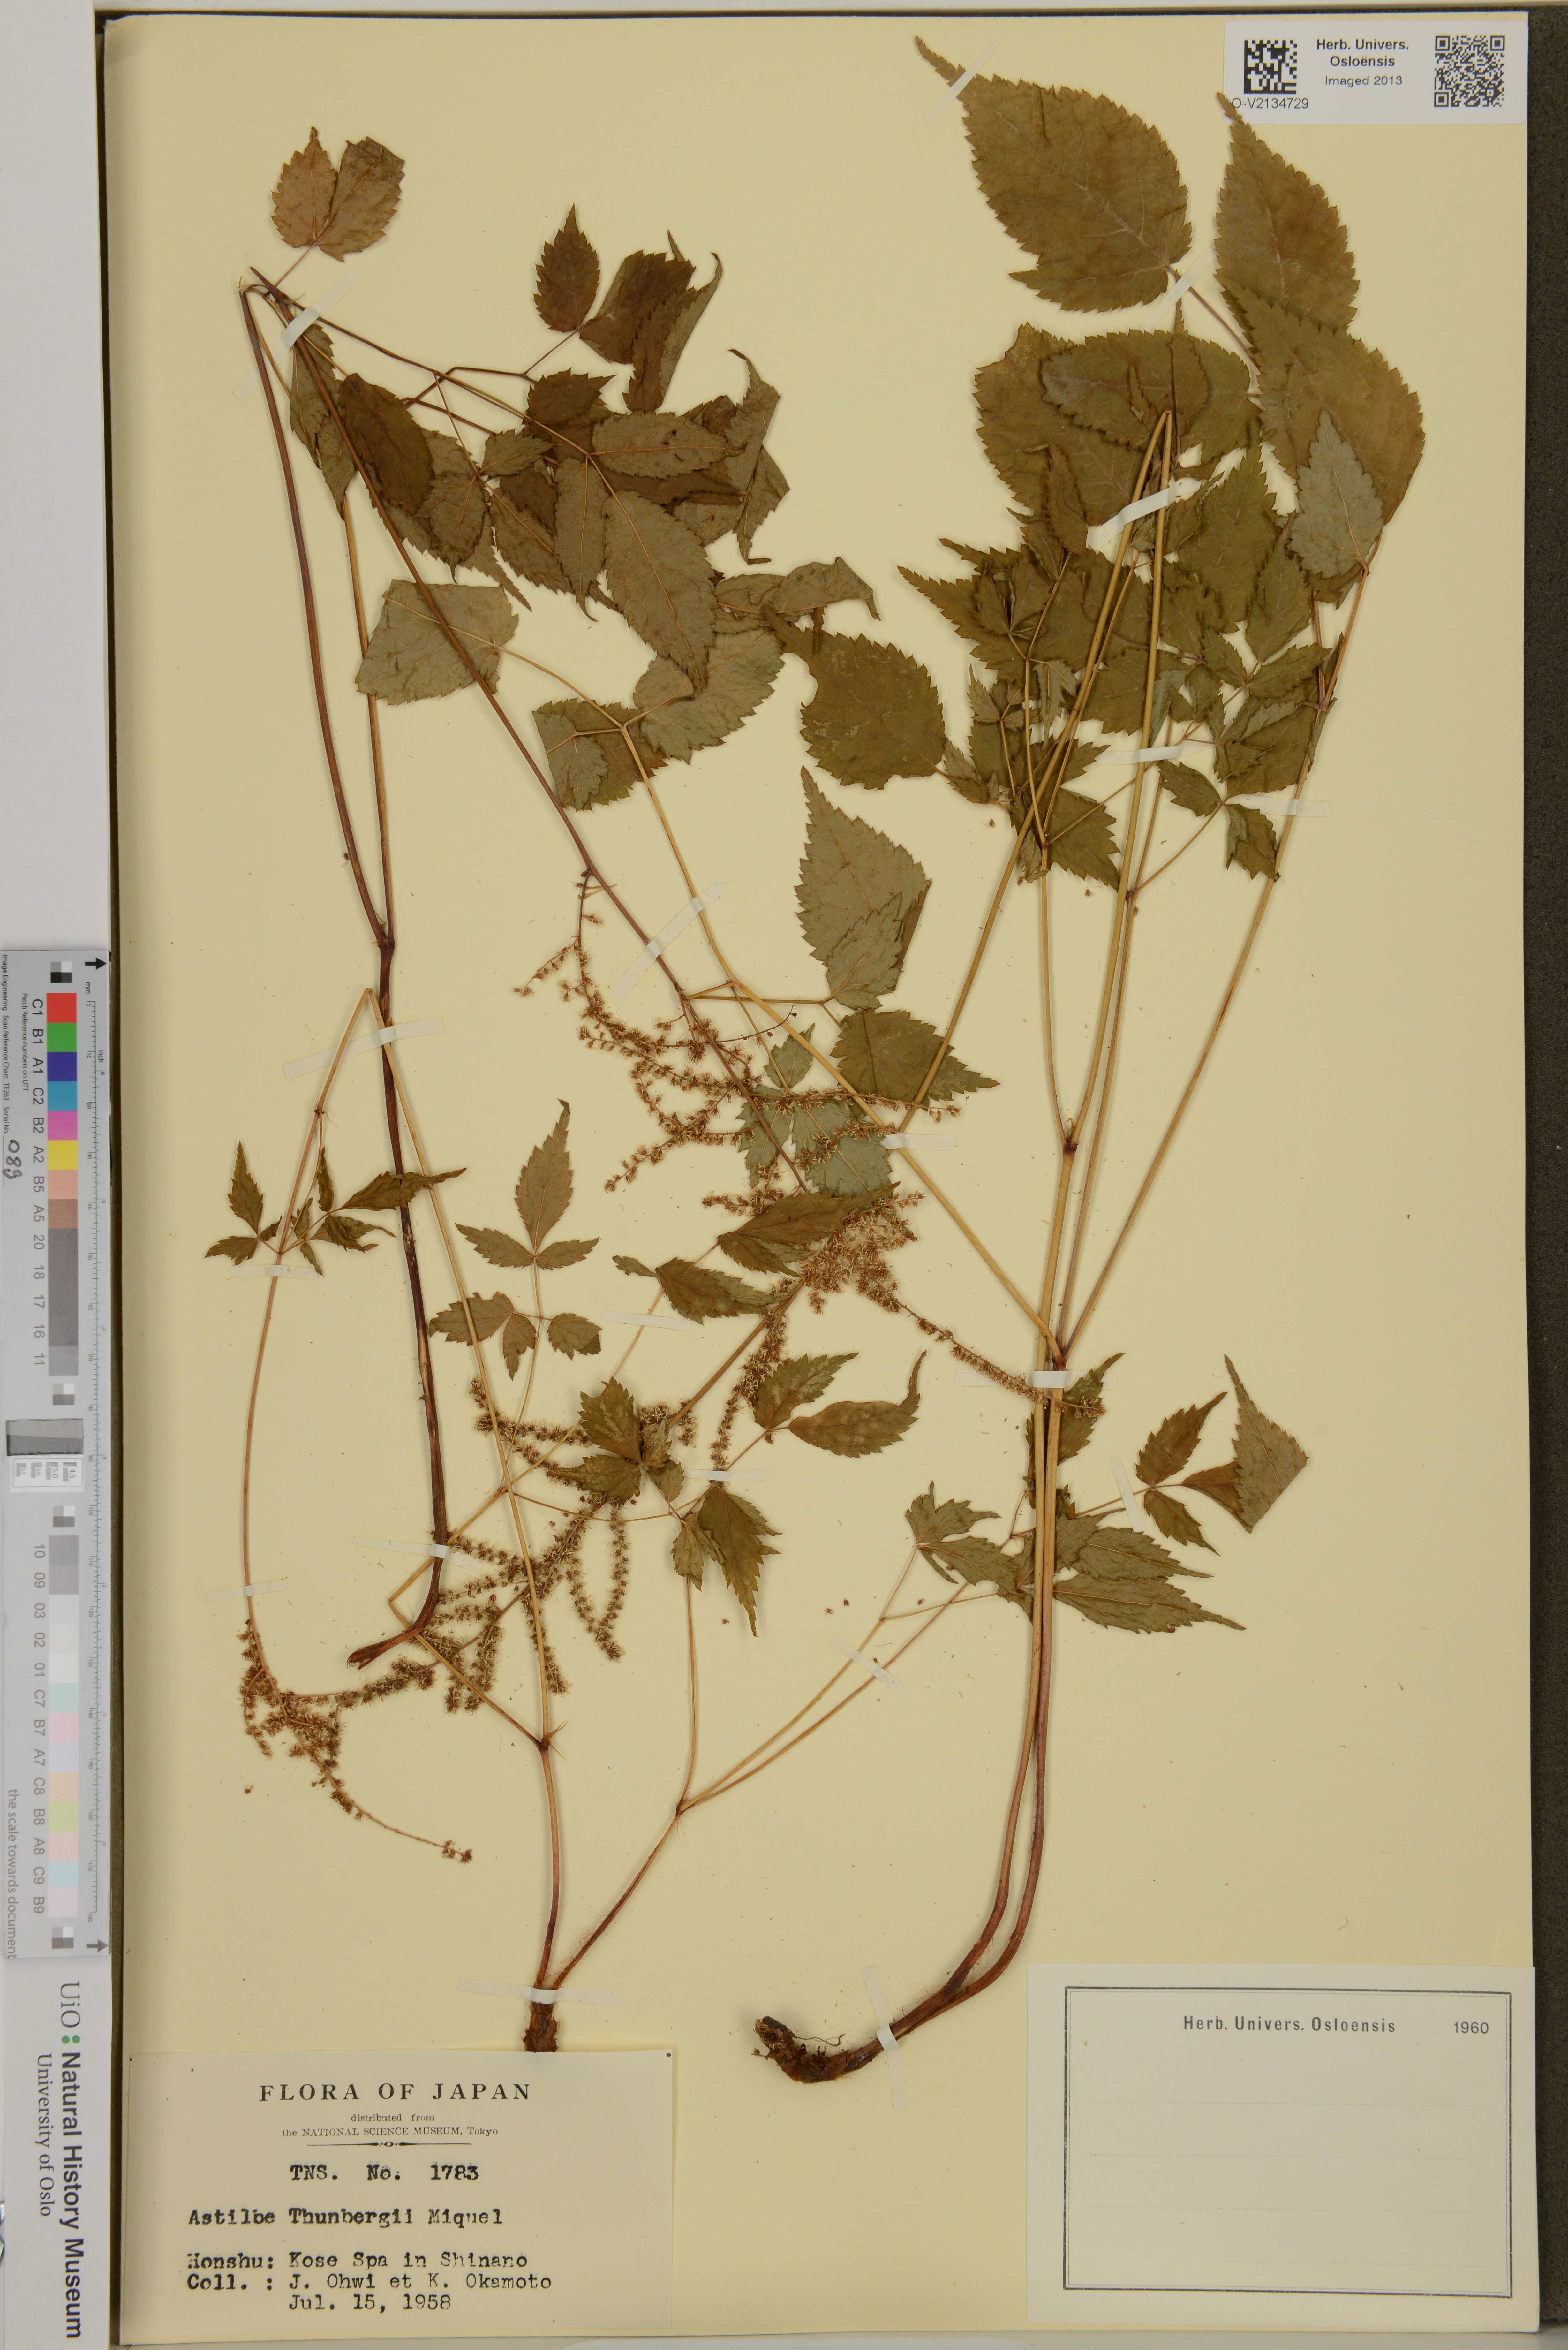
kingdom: Plantae
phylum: Tracheophyta
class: Magnoliopsida
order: Saxifragales
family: Saxifragaceae
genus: Astilbe
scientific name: Astilbe thunbergii
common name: Thunberg's astilbe
